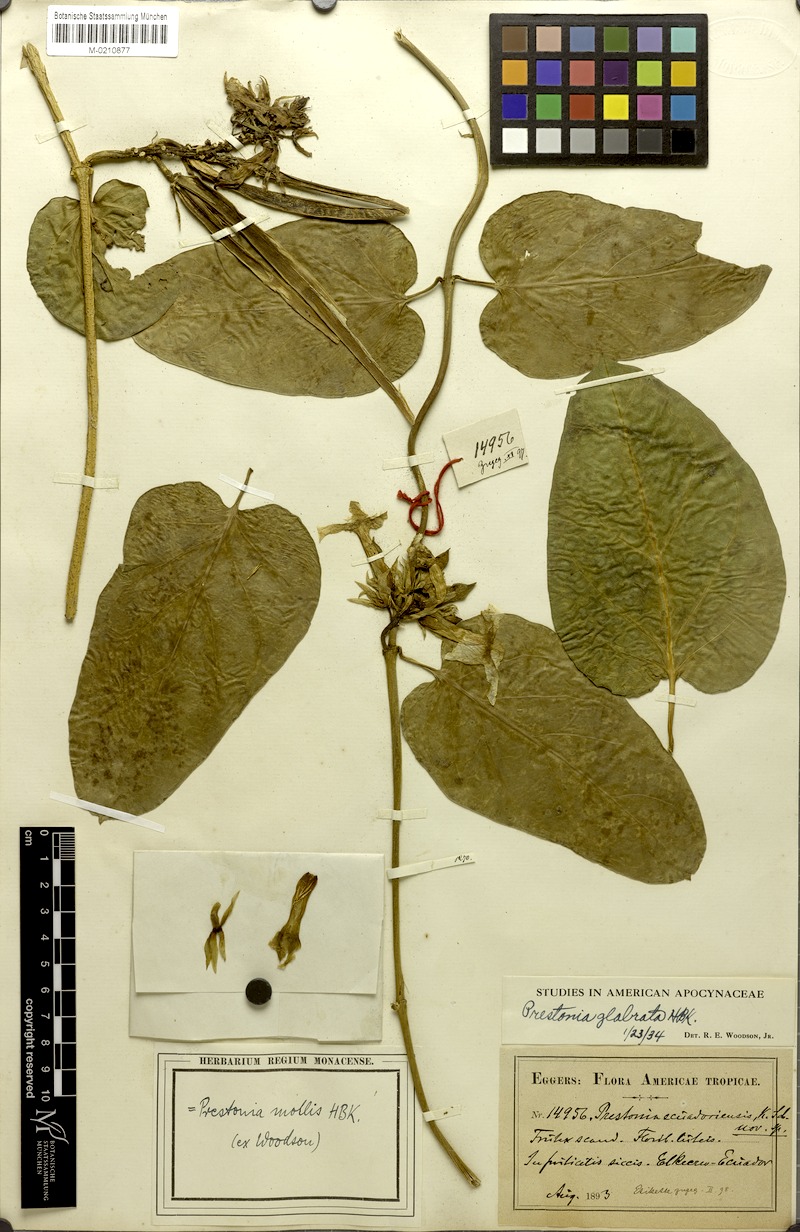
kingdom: Plantae
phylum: Tracheophyta
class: Magnoliopsida
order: Gentianales
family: Apocynaceae
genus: Prestonia
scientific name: Prestonia mollis
